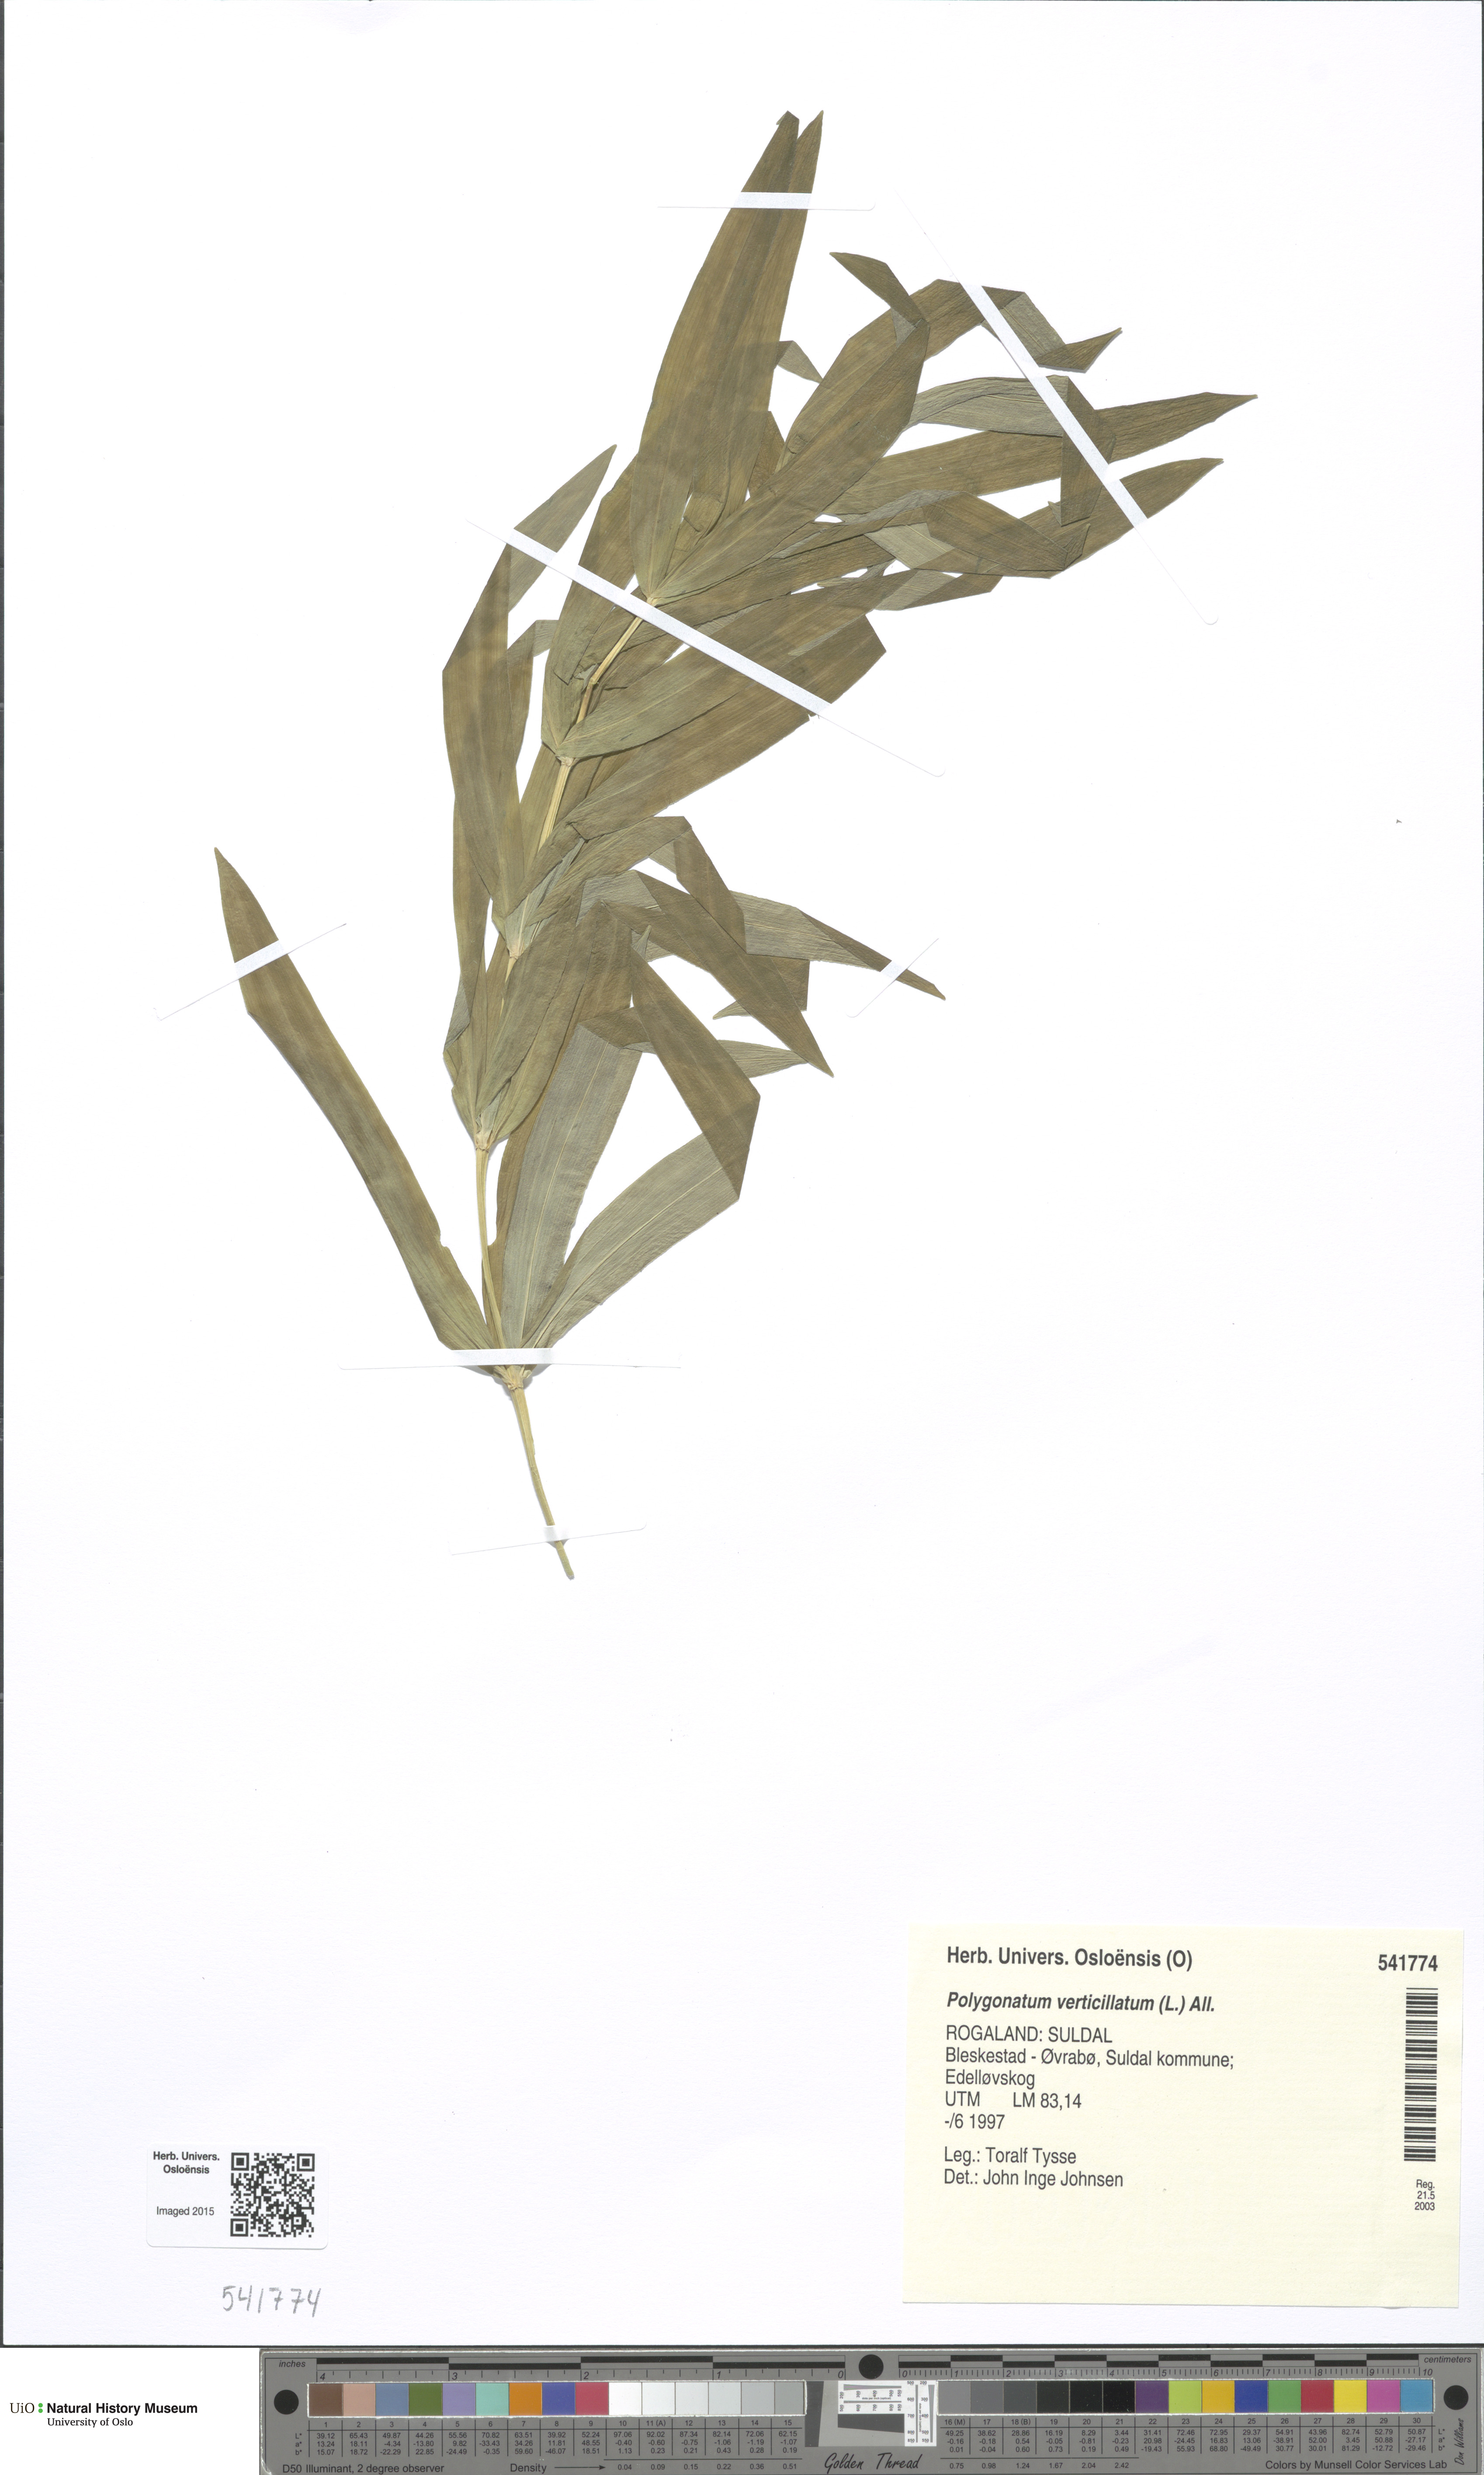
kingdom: Plantae
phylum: Tracheophyta
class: Liliopsida
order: Asparagales
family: Asparagaceae
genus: Polygonatum
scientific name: Polygonatum verticillatum
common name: Whorled solomon's-seal
